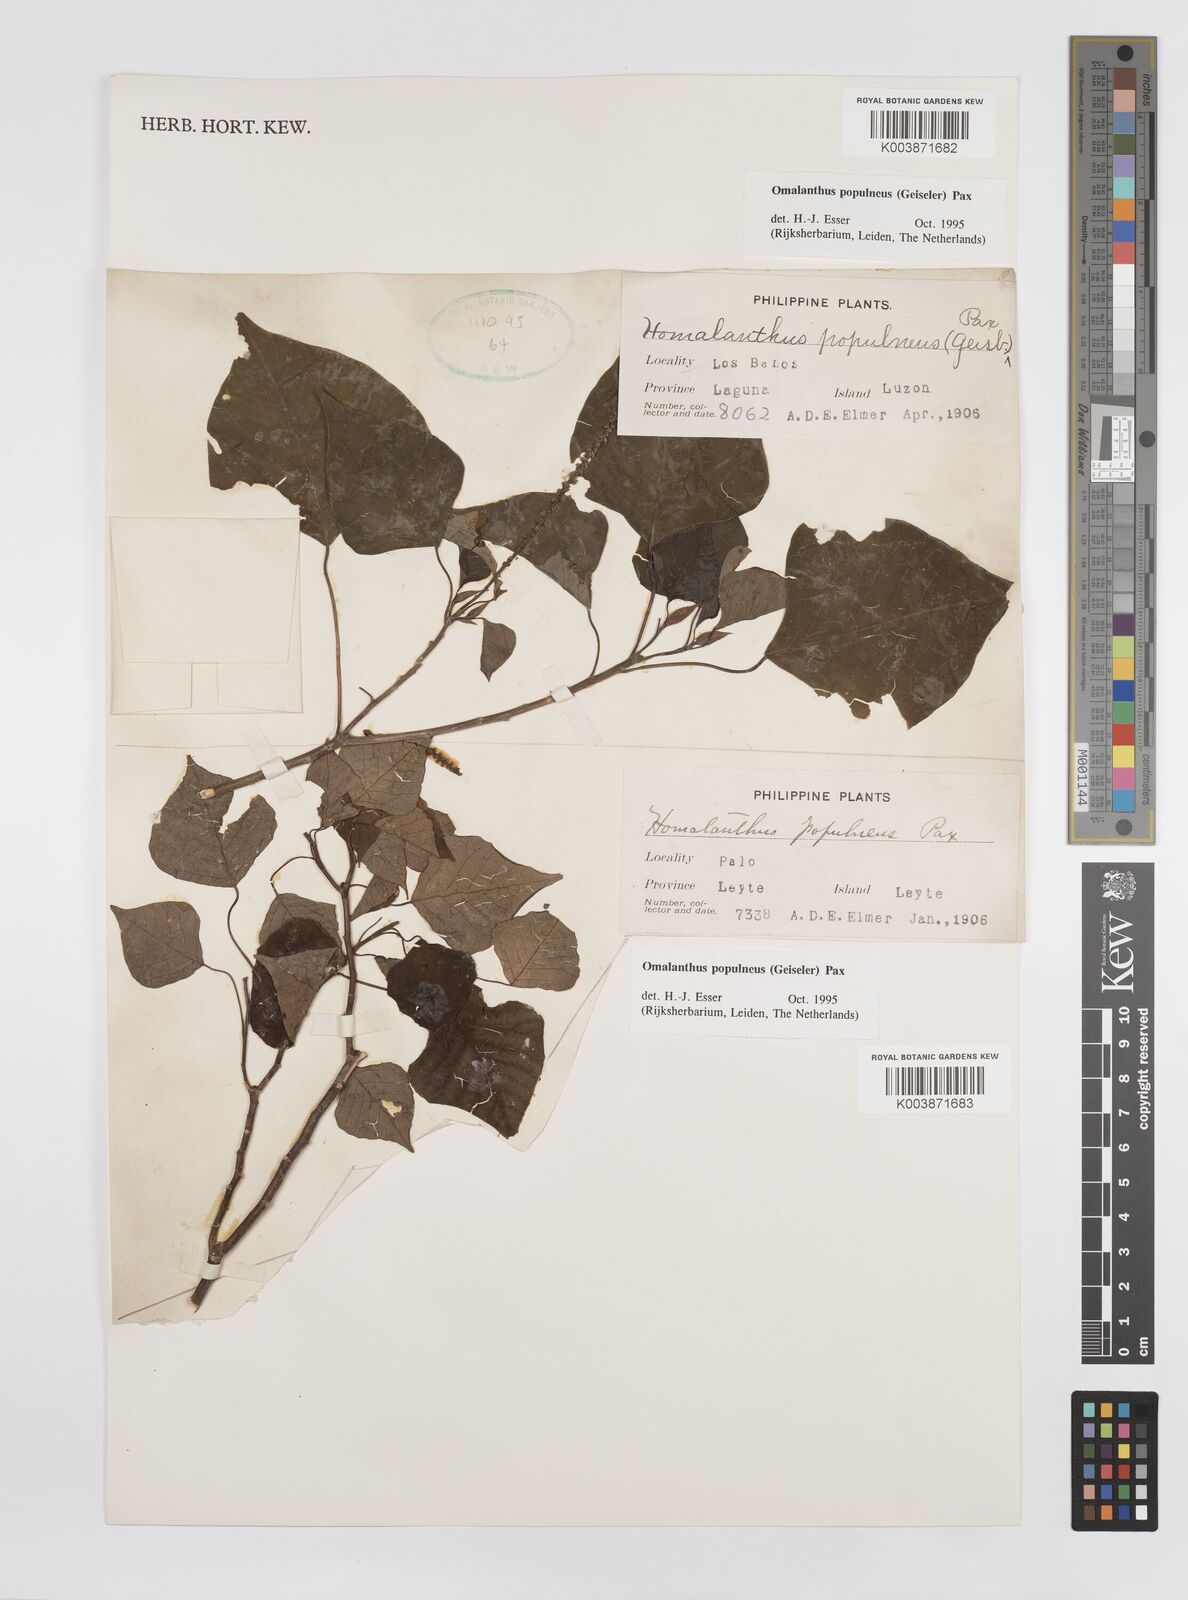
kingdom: Plantae
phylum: Tracheophyta
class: Magnoliopsida
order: Malpighiales
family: Euphorbiaceae
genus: Homalanthus
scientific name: Homalanthus populneus
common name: Spurge
